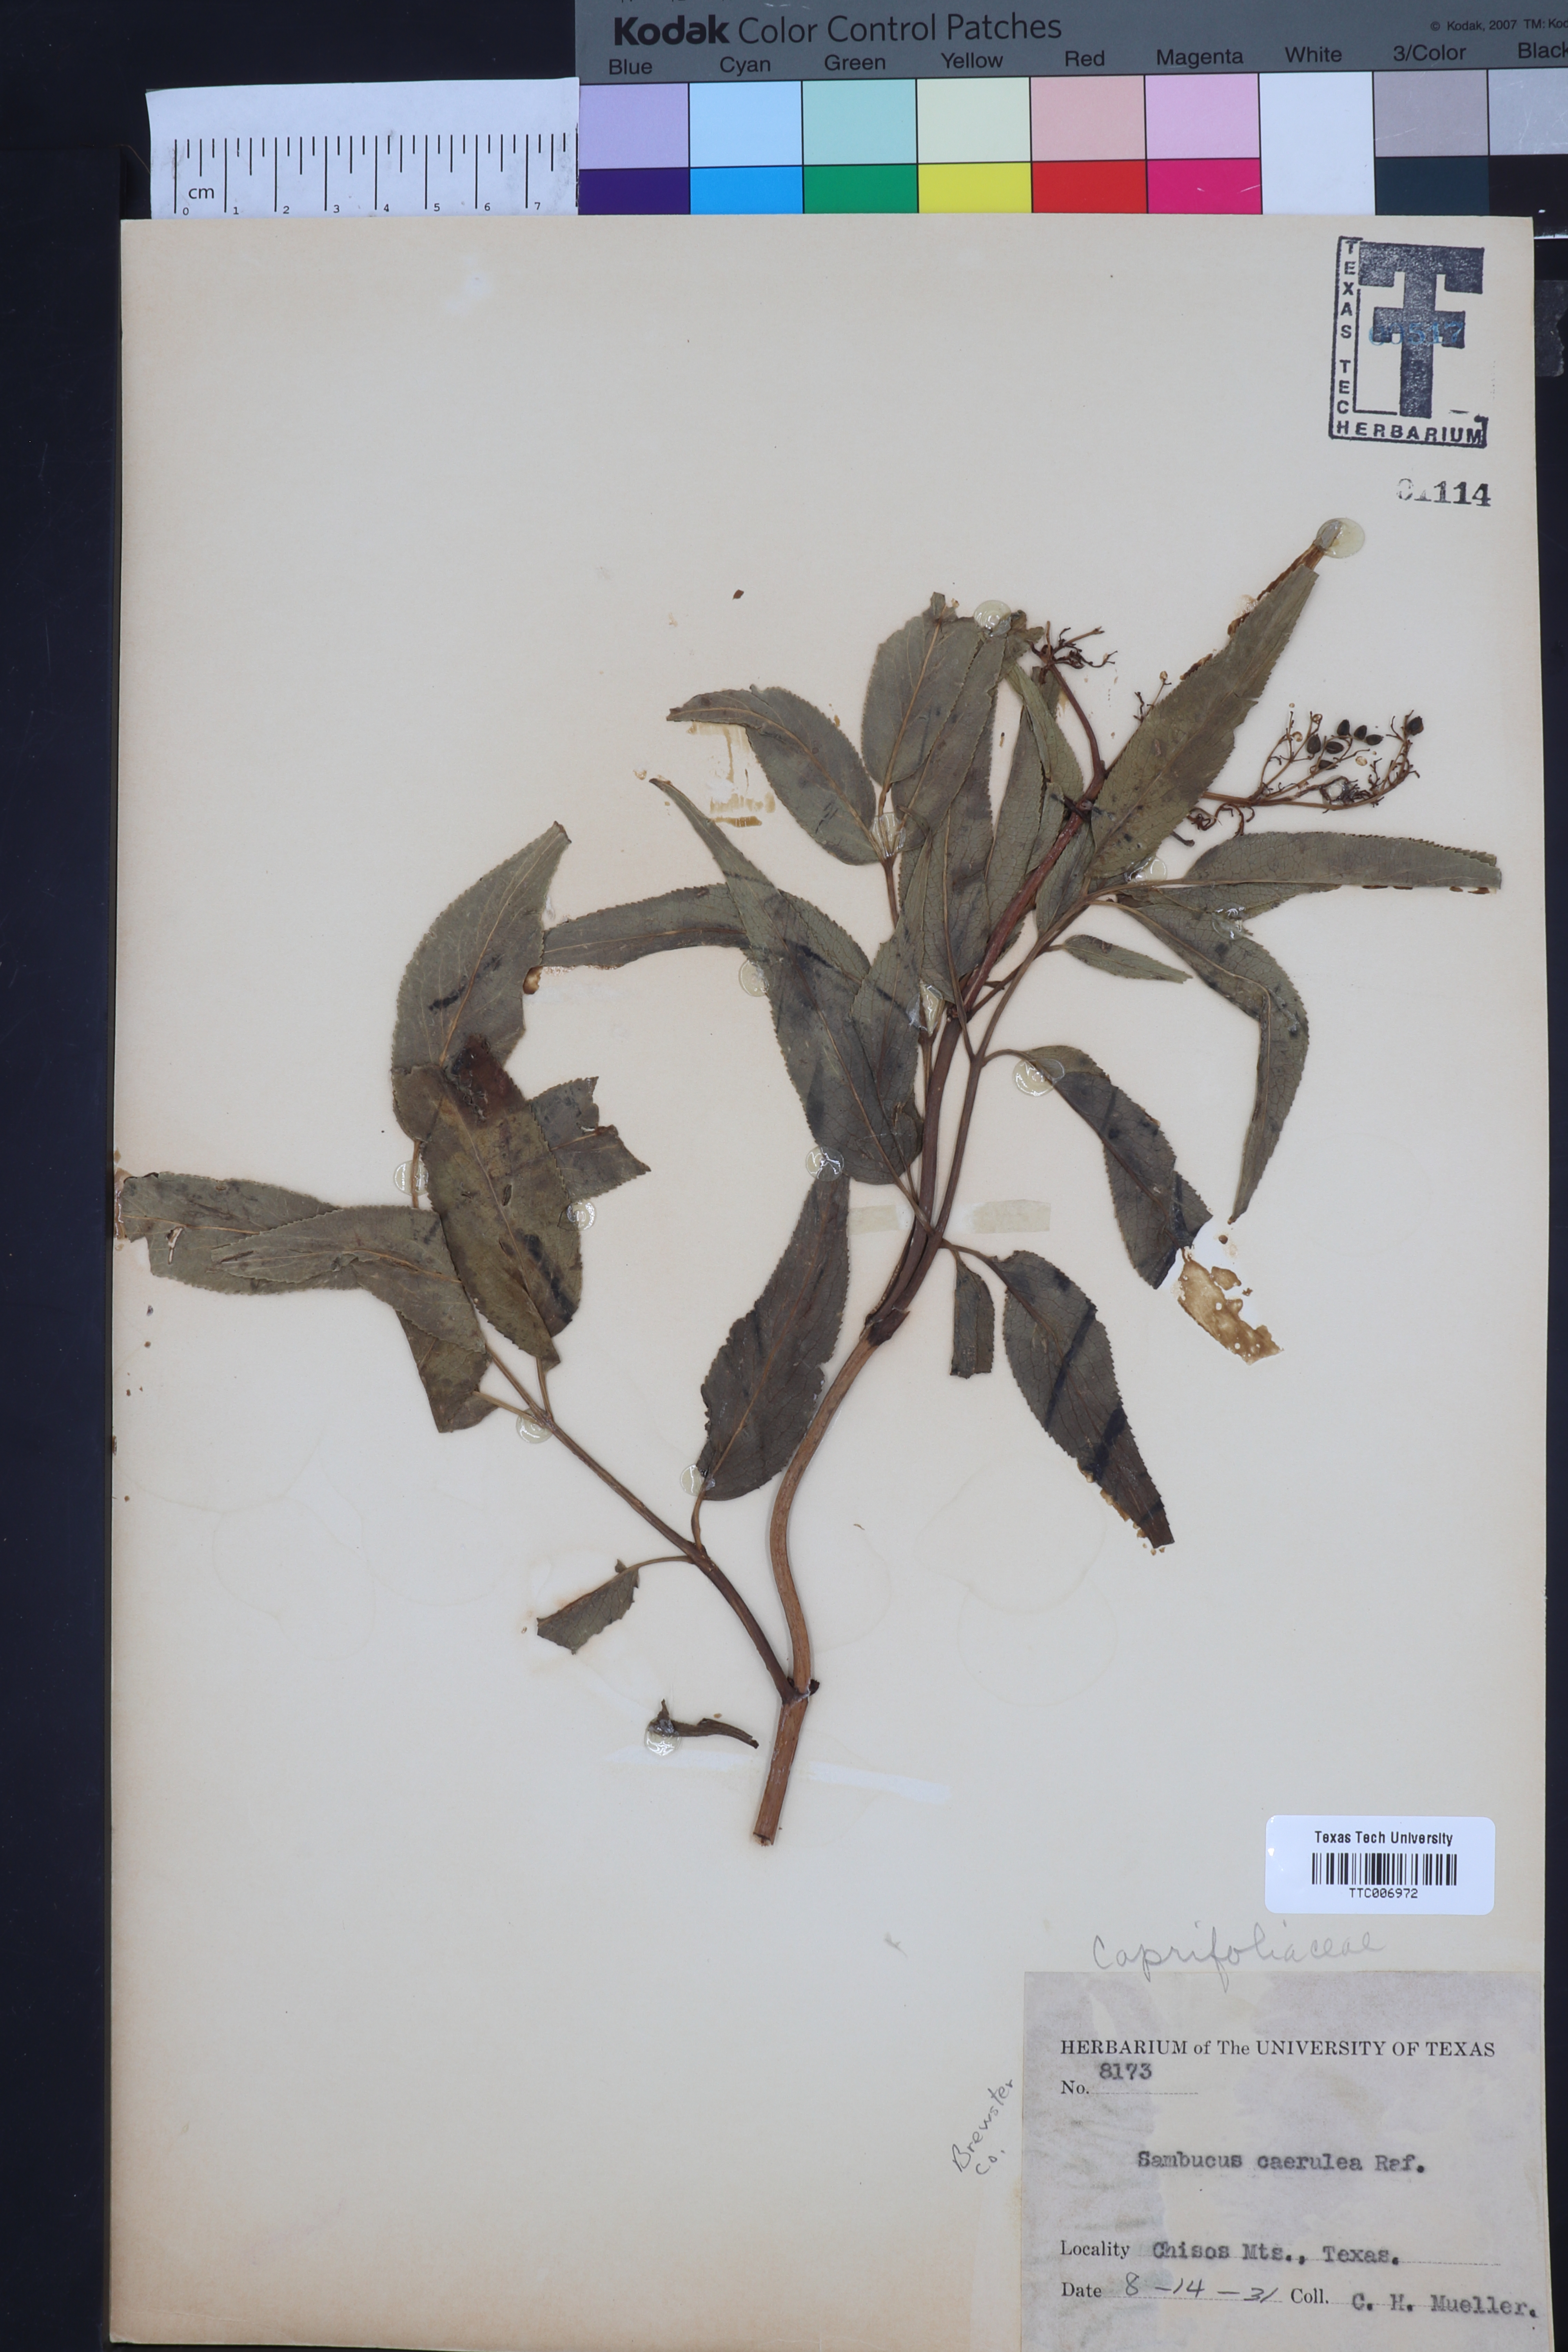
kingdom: Plantae
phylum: Tracheophyta
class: Magnoliopsida
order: Dipsacales
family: Viburnaceae
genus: Sambucus
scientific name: Sambucus caerulea
